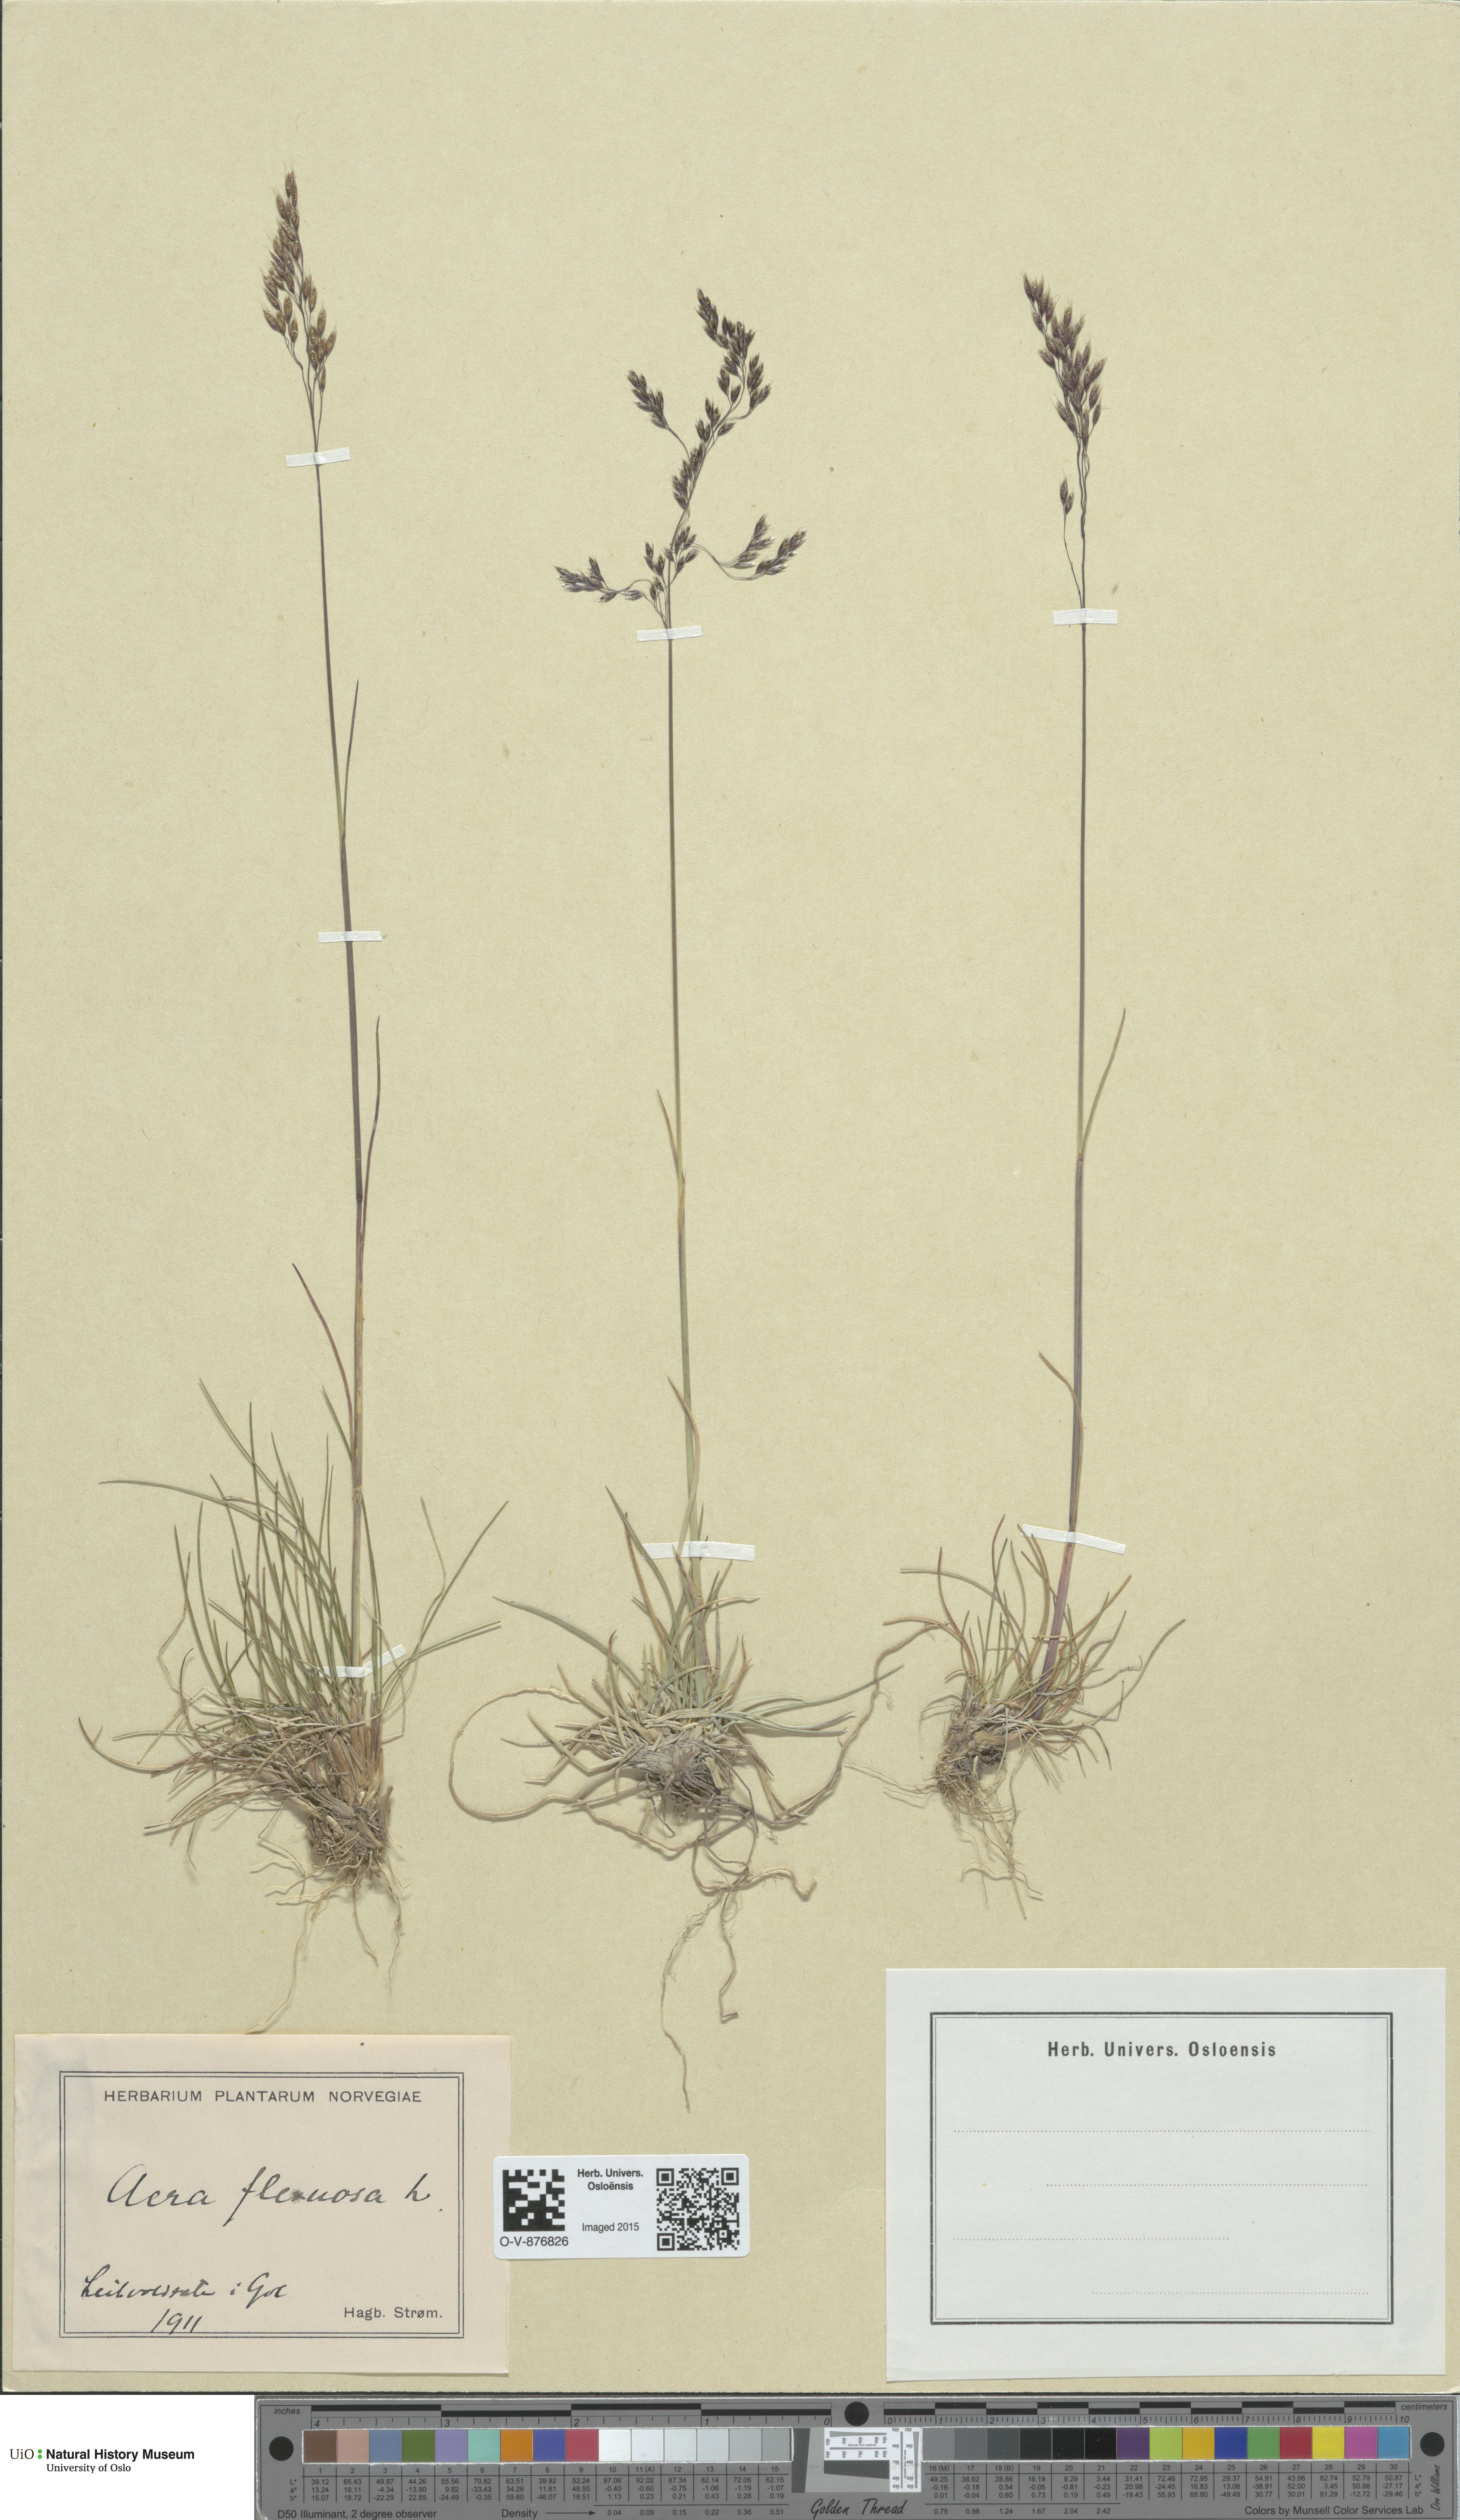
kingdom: Plantae
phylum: Tracheophyta
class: Liliopsida
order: Poales
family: Poaceae
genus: Avenella
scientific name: Avenella flexuosa
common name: Wavy hairgrass
